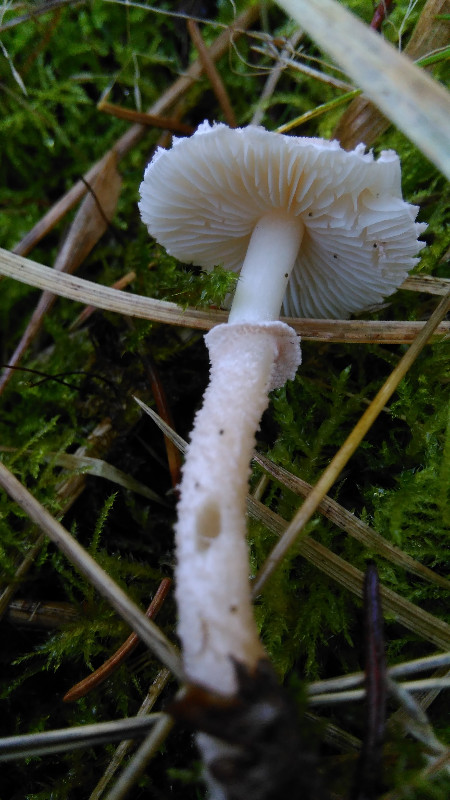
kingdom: Fungi
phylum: Basidiomycota
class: Agaricomycetes
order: Agaricales
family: Tricholomataceae
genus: Cystoderma
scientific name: Cystoderma carcharias
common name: rødgrå grynhat
